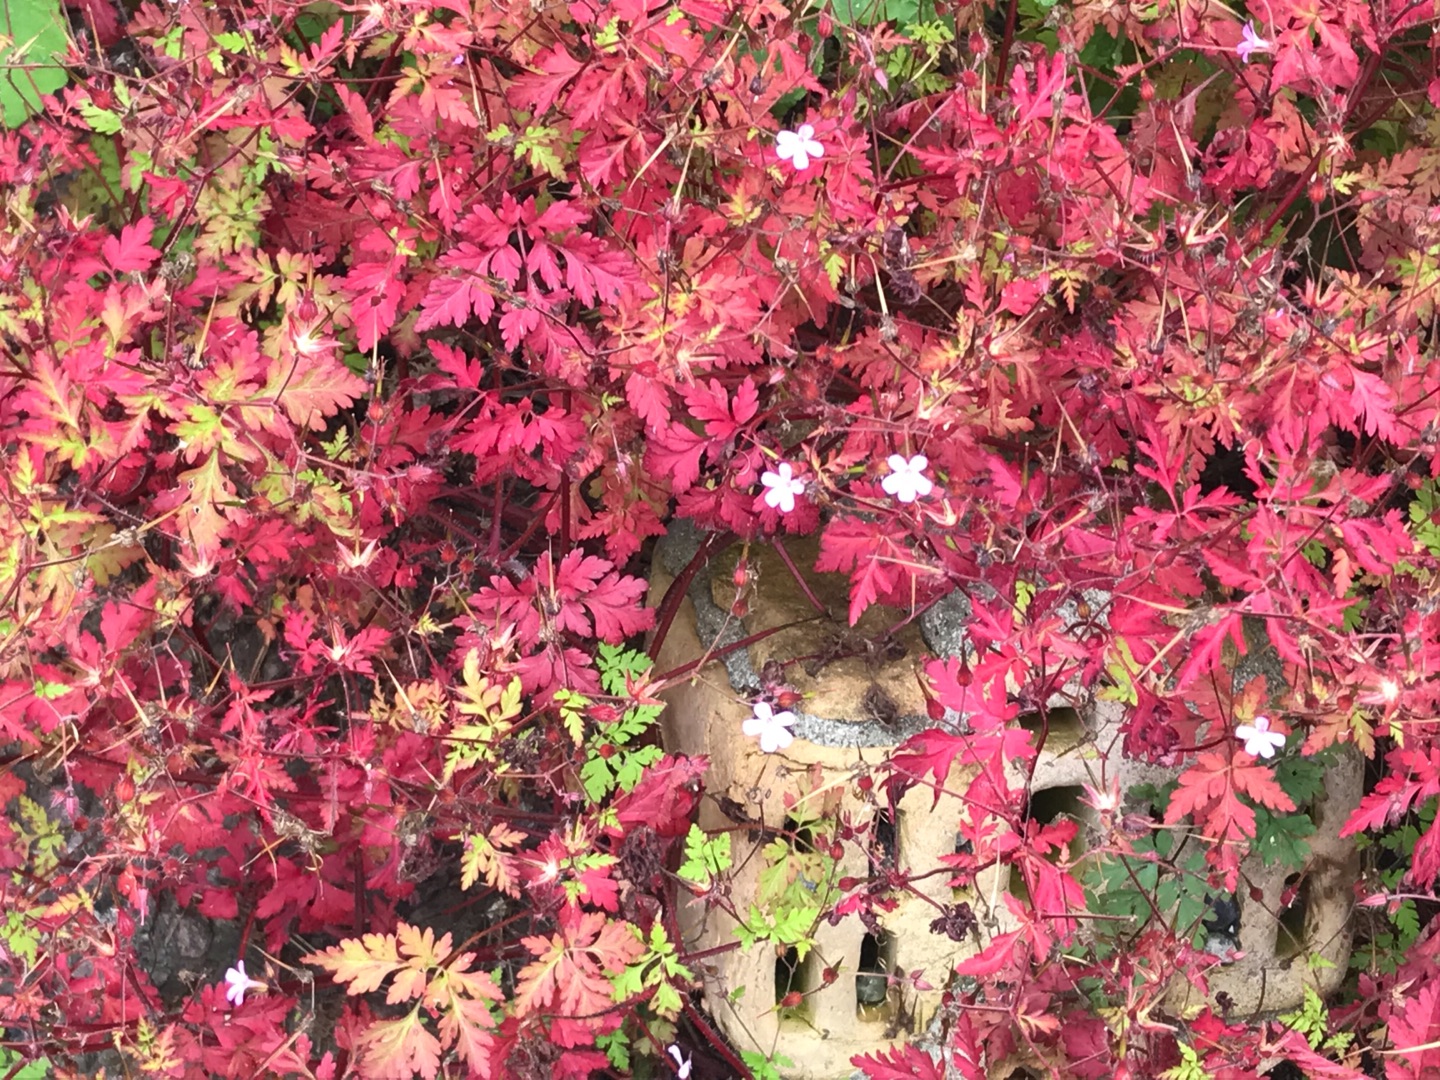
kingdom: Plantae
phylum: Tracheophyta
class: Magnoliopsida
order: Geraniales
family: Geraniaceae
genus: Geranium
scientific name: Geranium robertianum
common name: Stinkende storkenæb
